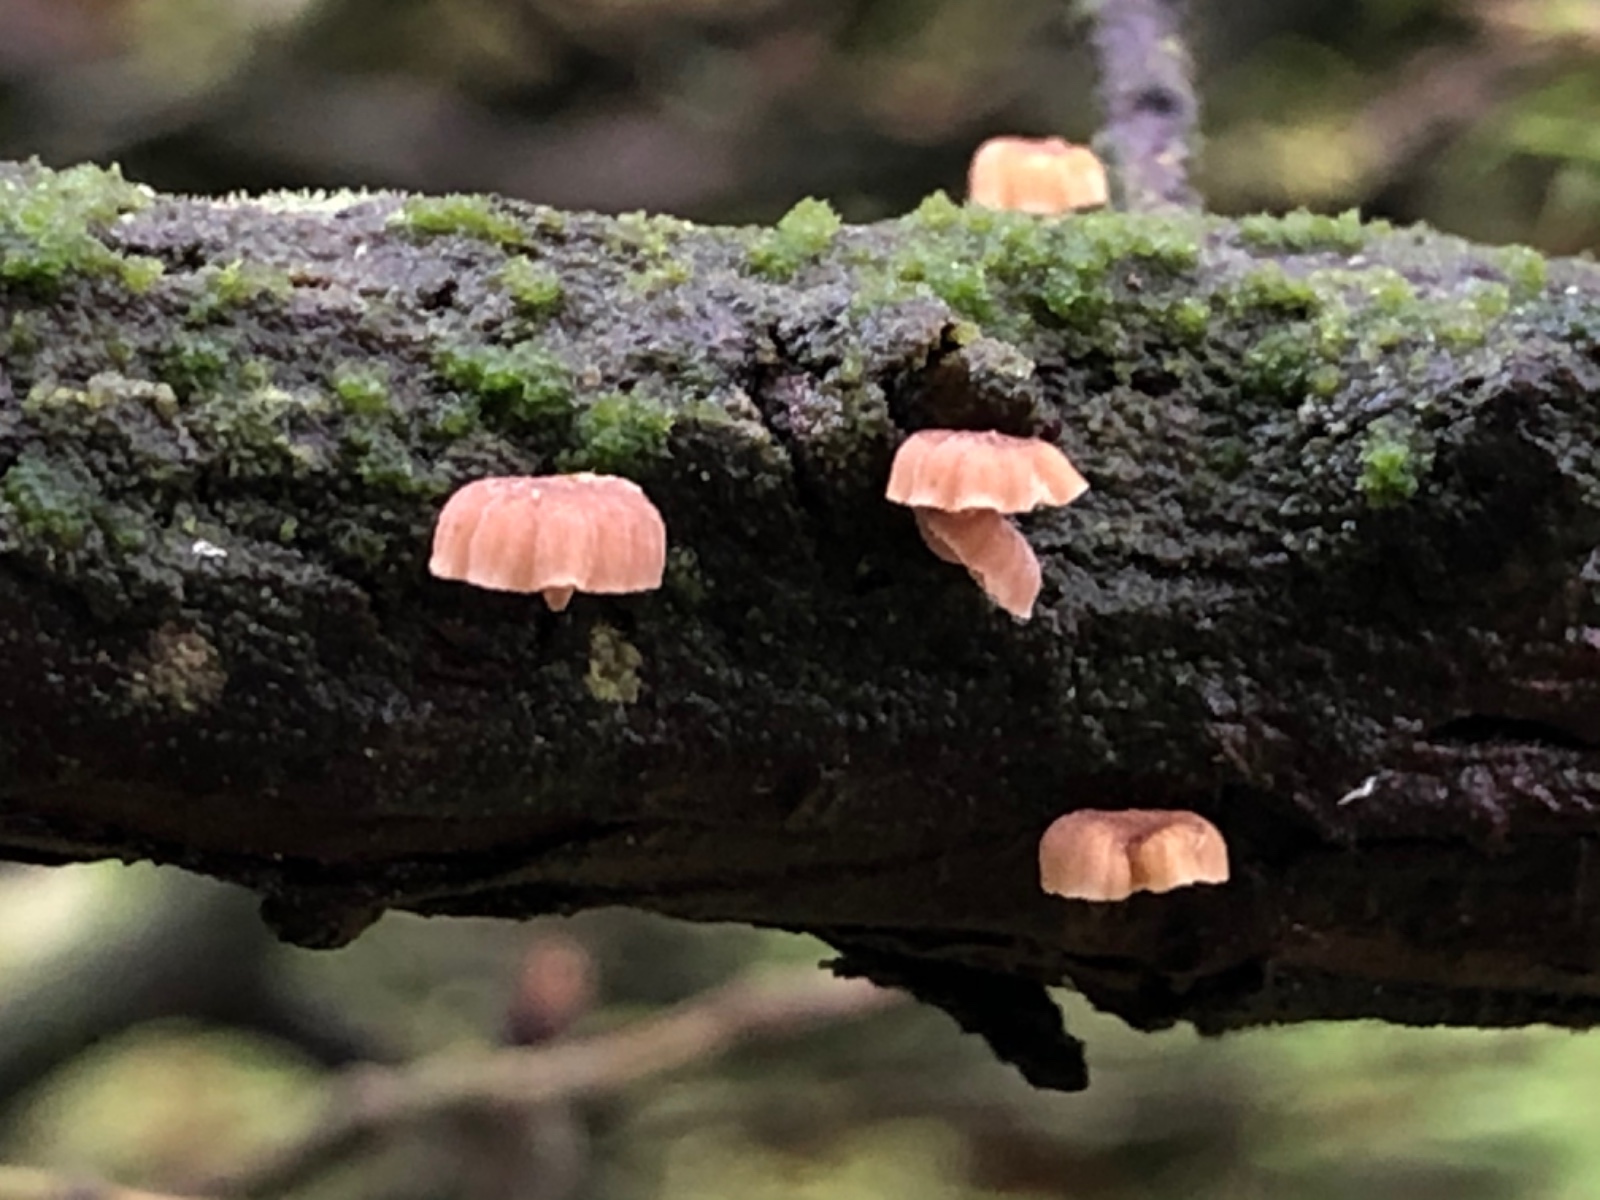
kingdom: Fungi
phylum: Basidiomycota
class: Agaricomycetes
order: Agaricales
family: Mycenaceae
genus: Mycena
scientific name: Mycena juniperina
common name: ene-Huesvamp
